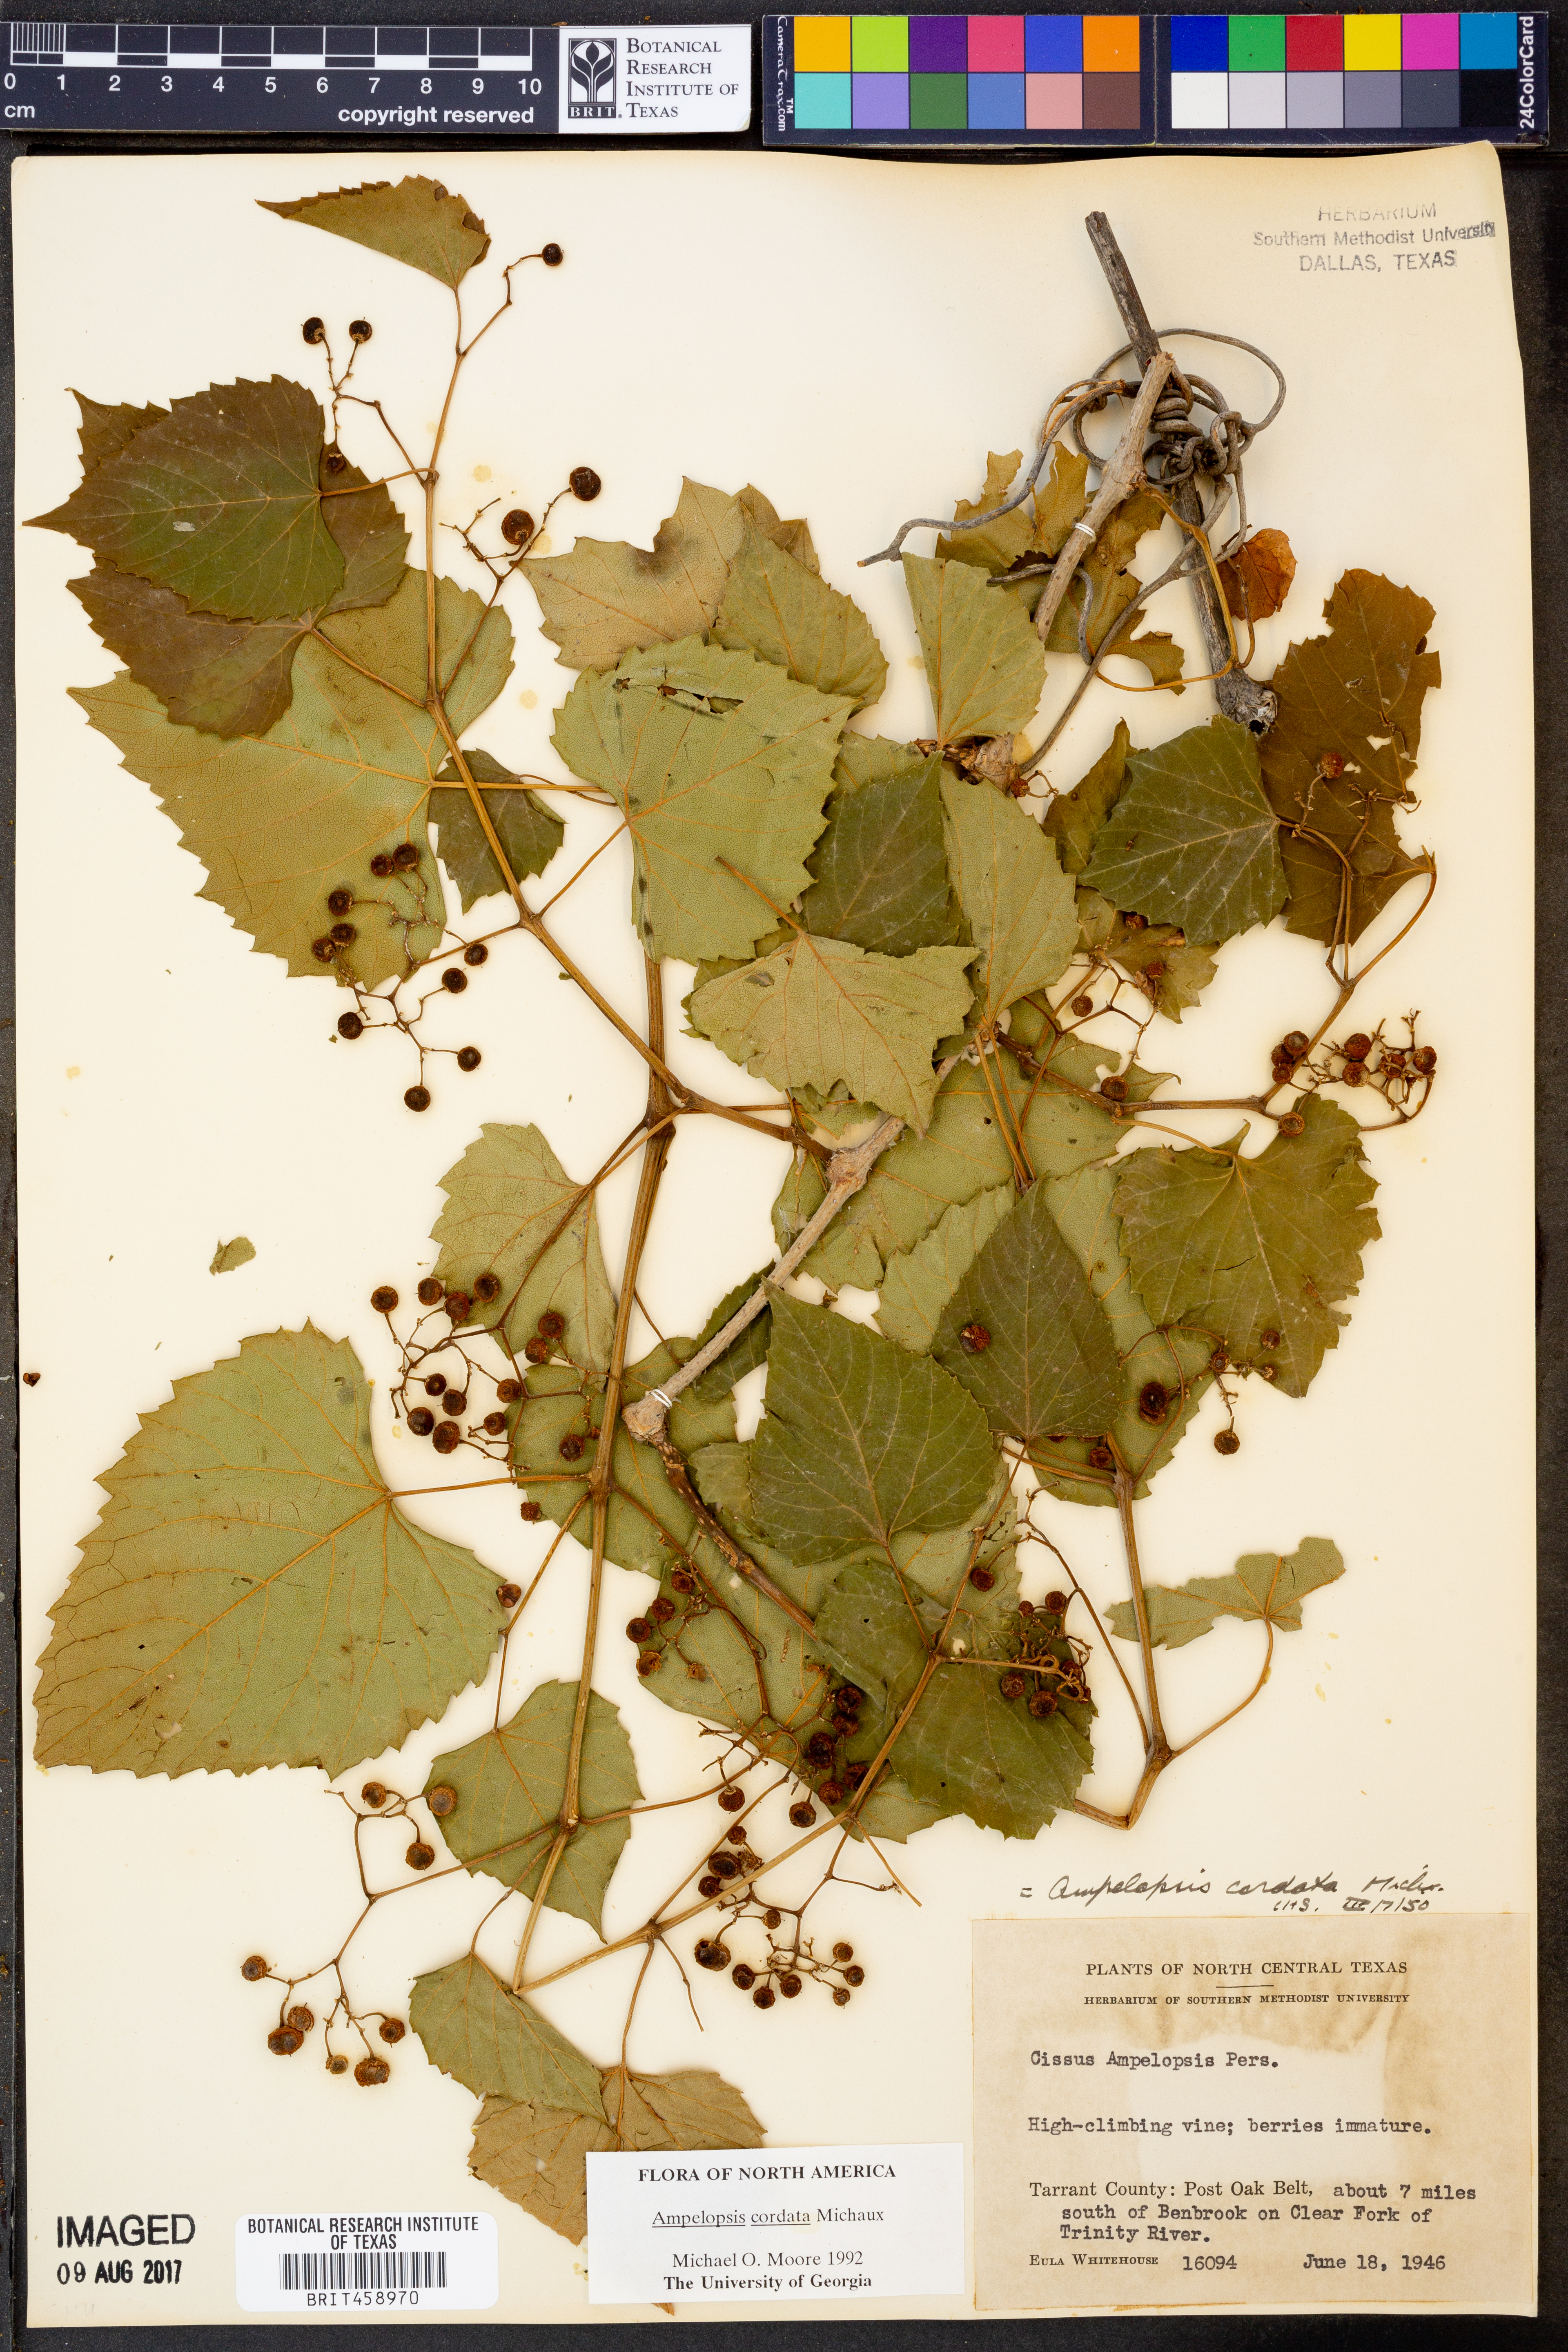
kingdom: Plantae
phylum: Tracheophyta
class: Magnoliopsida
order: Vitales
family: Vitaceae
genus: Ampelopsis
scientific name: Ampelopsis cordata
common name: Heart-leaf ampelopsis
